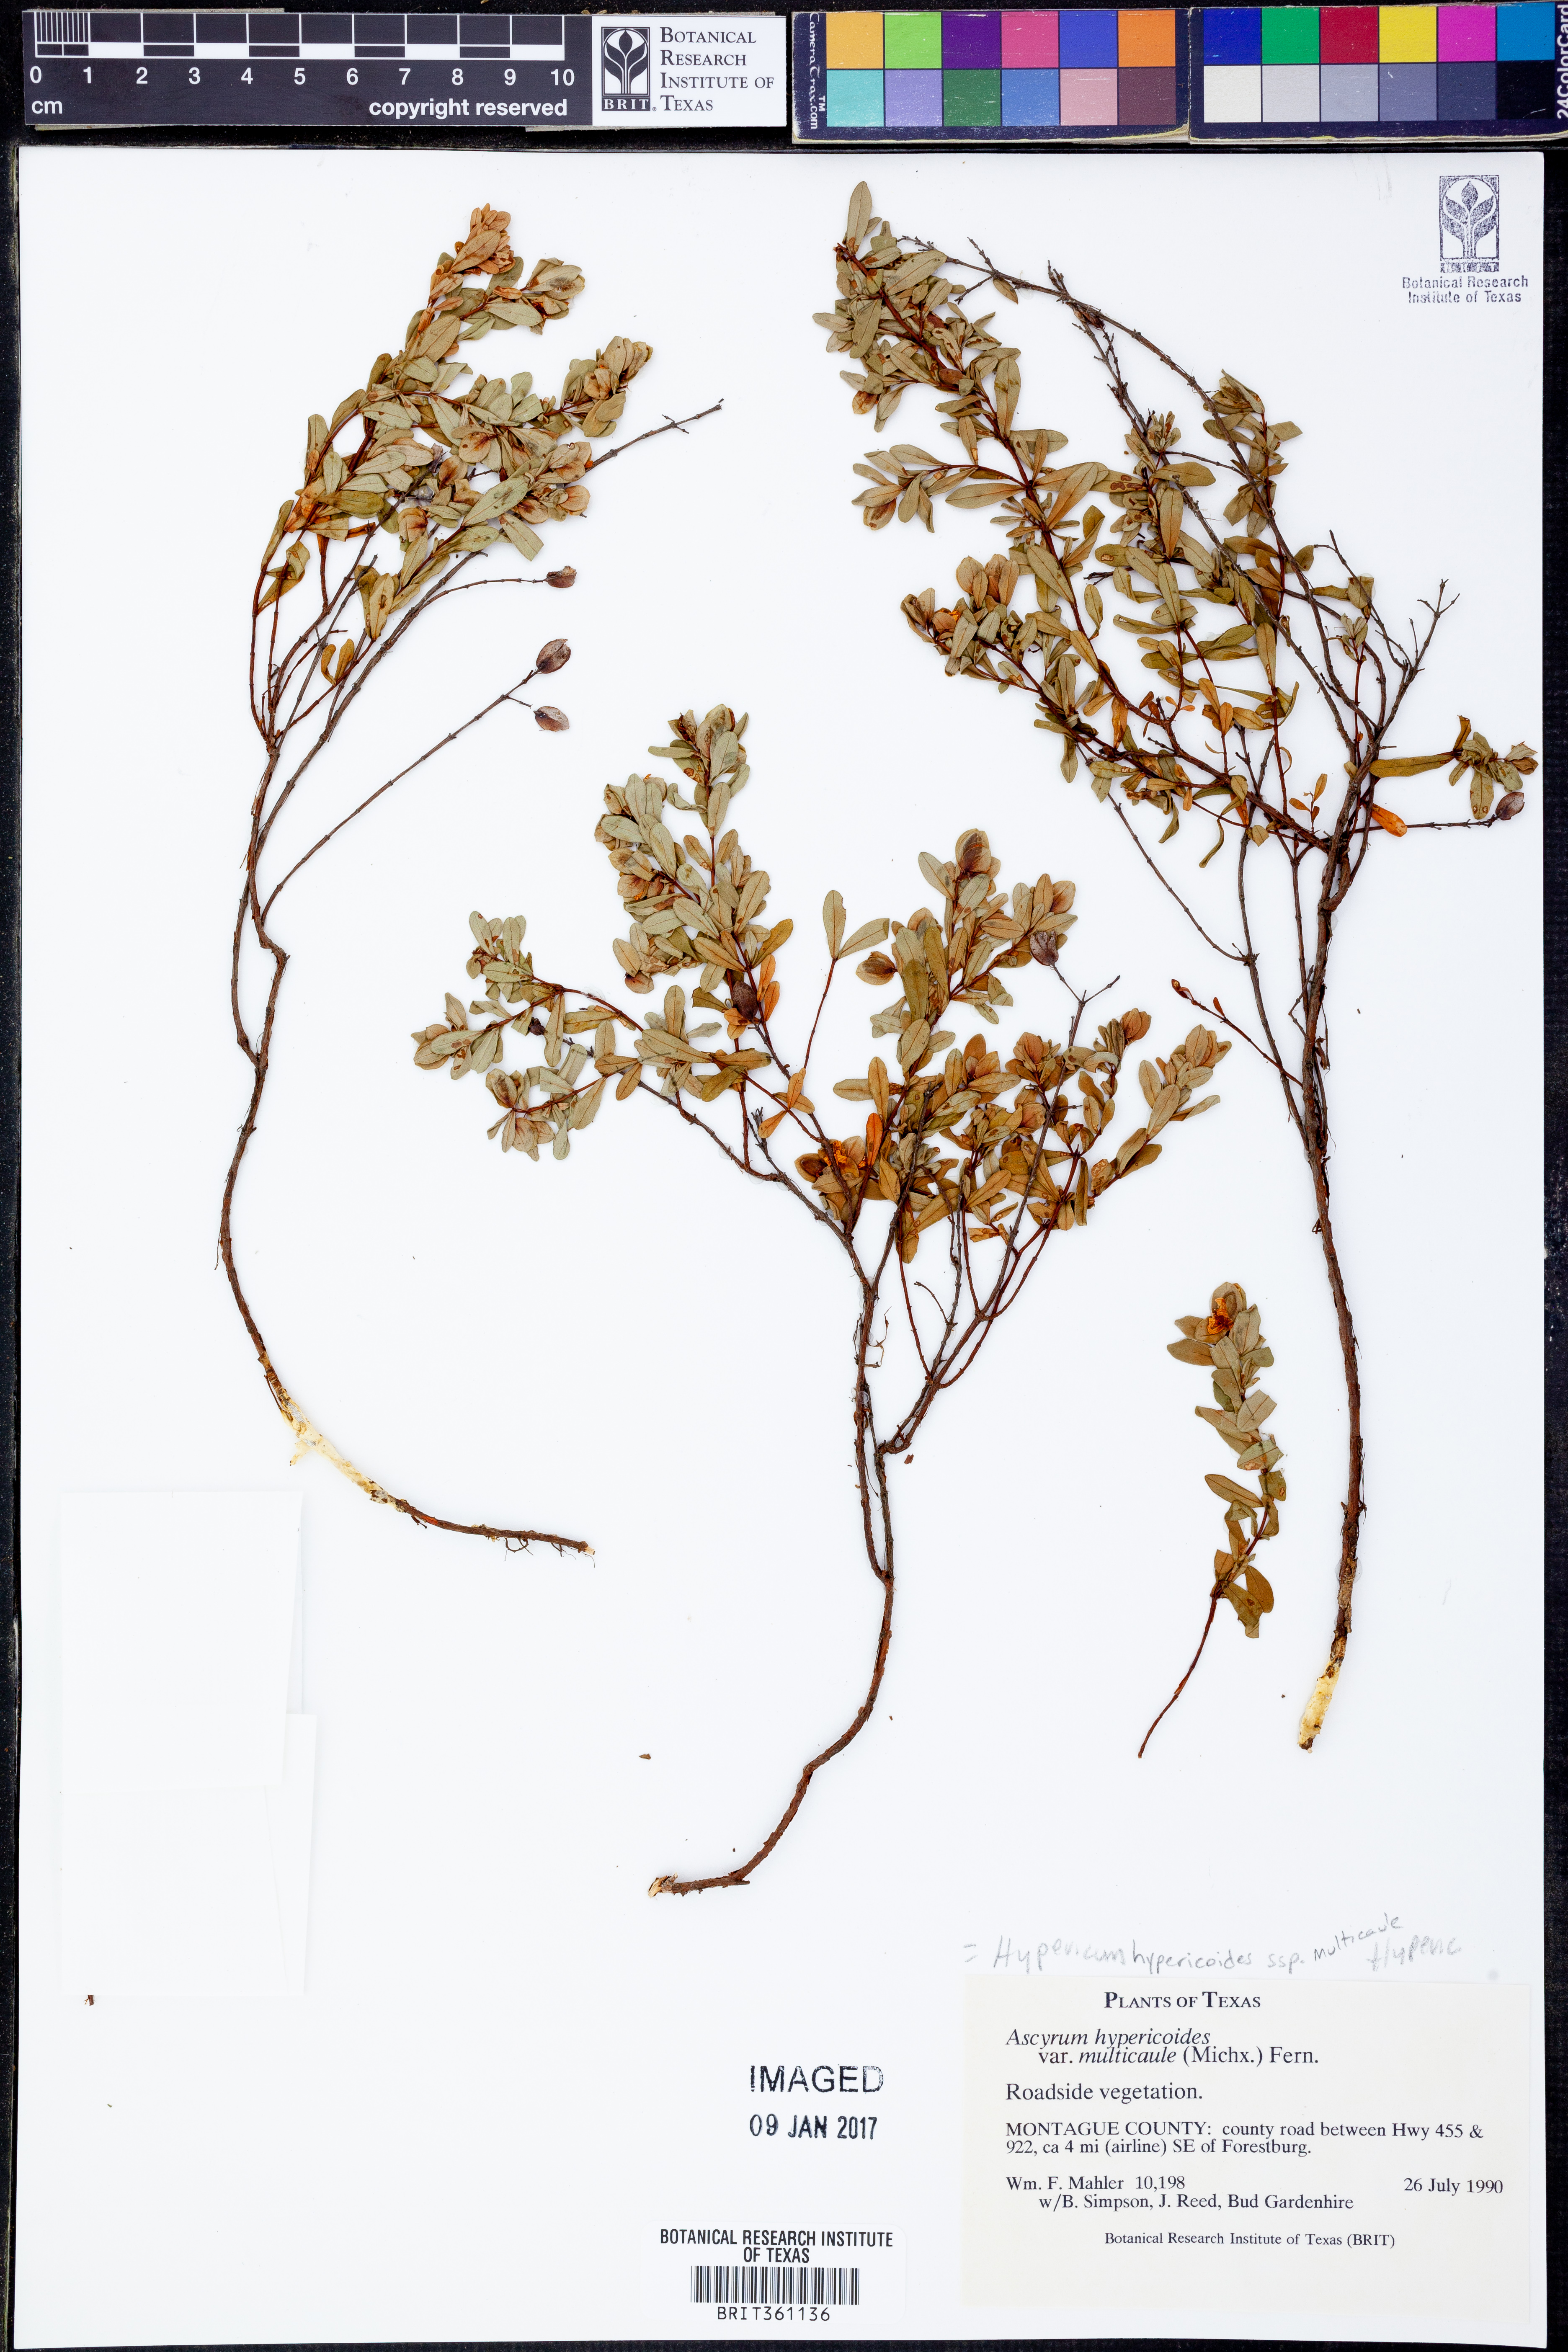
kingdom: Plantae
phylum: Tracheophyta
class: Magnoliopsida
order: Malpighiales
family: Hypericaceae
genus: Hypericum
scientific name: Hypericum hypericoides
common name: St. andrew's cross
